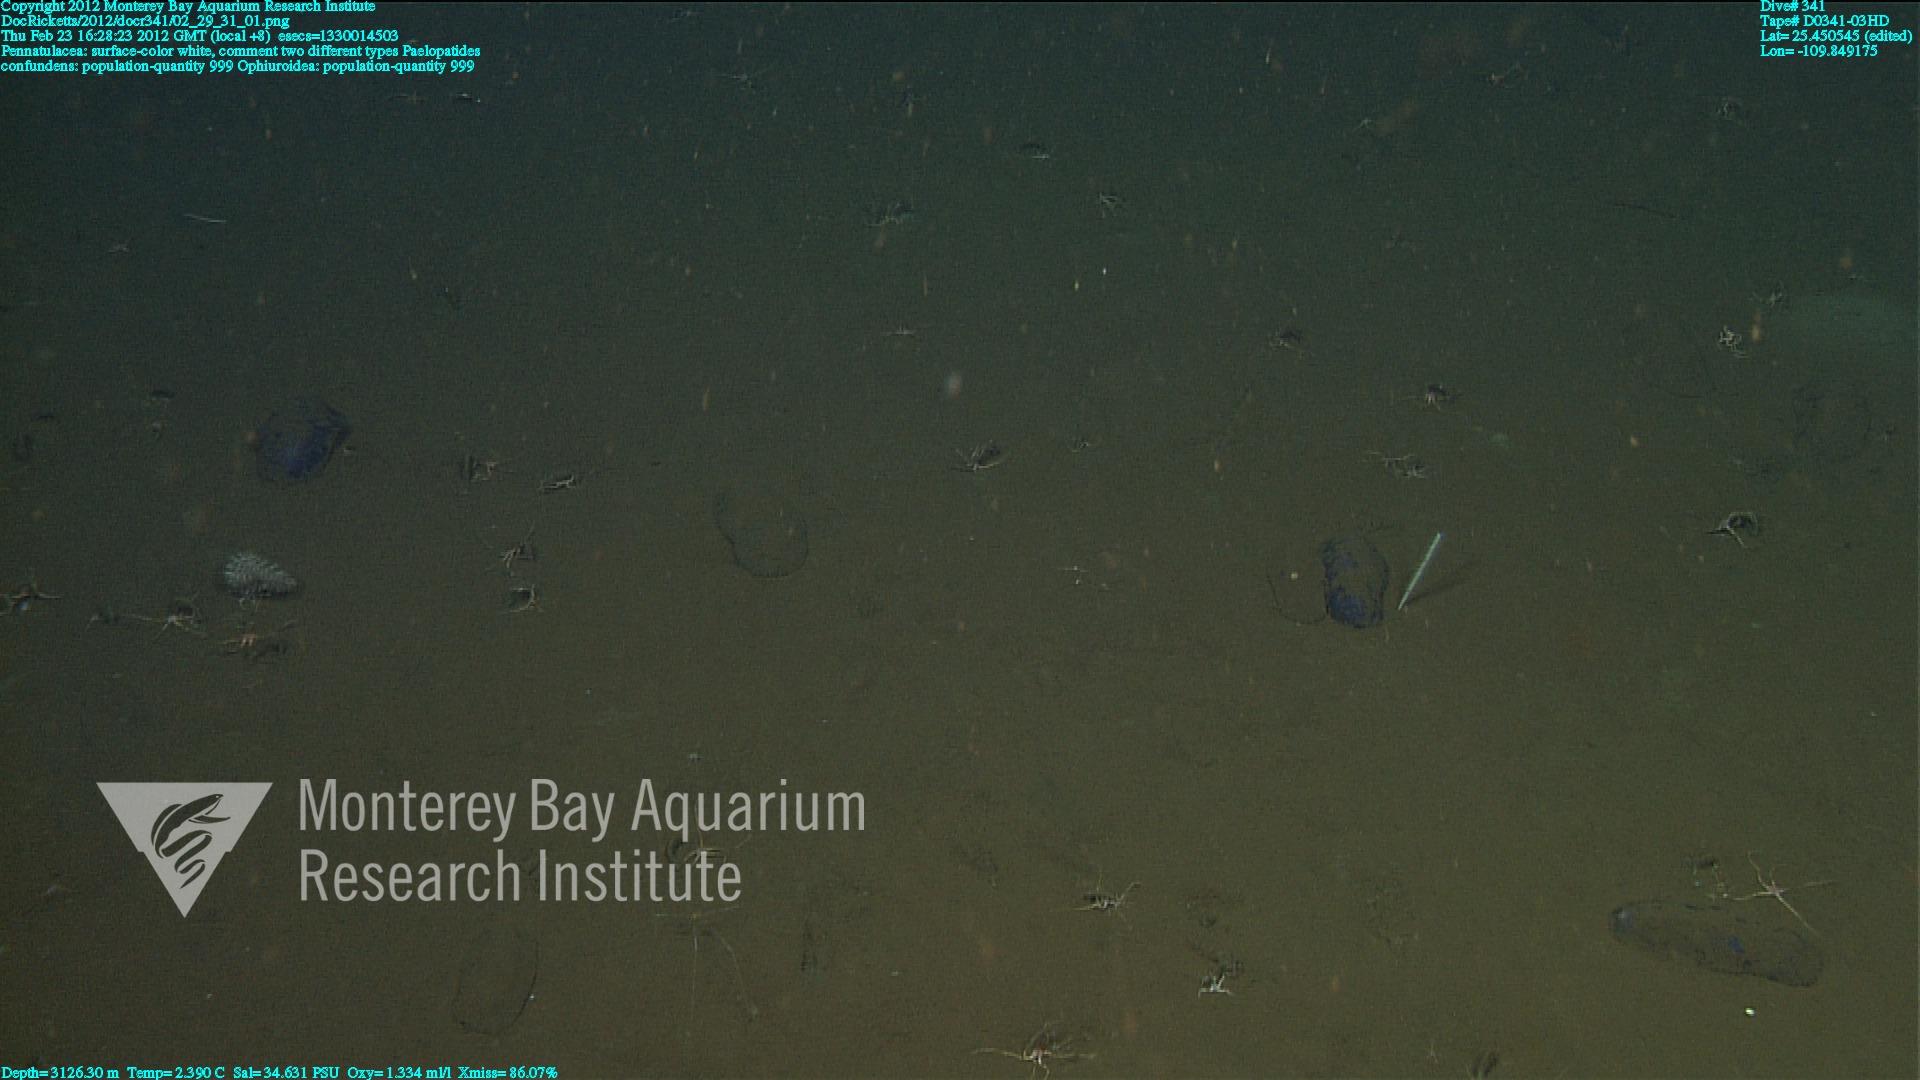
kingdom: Animalia
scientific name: Animalia
